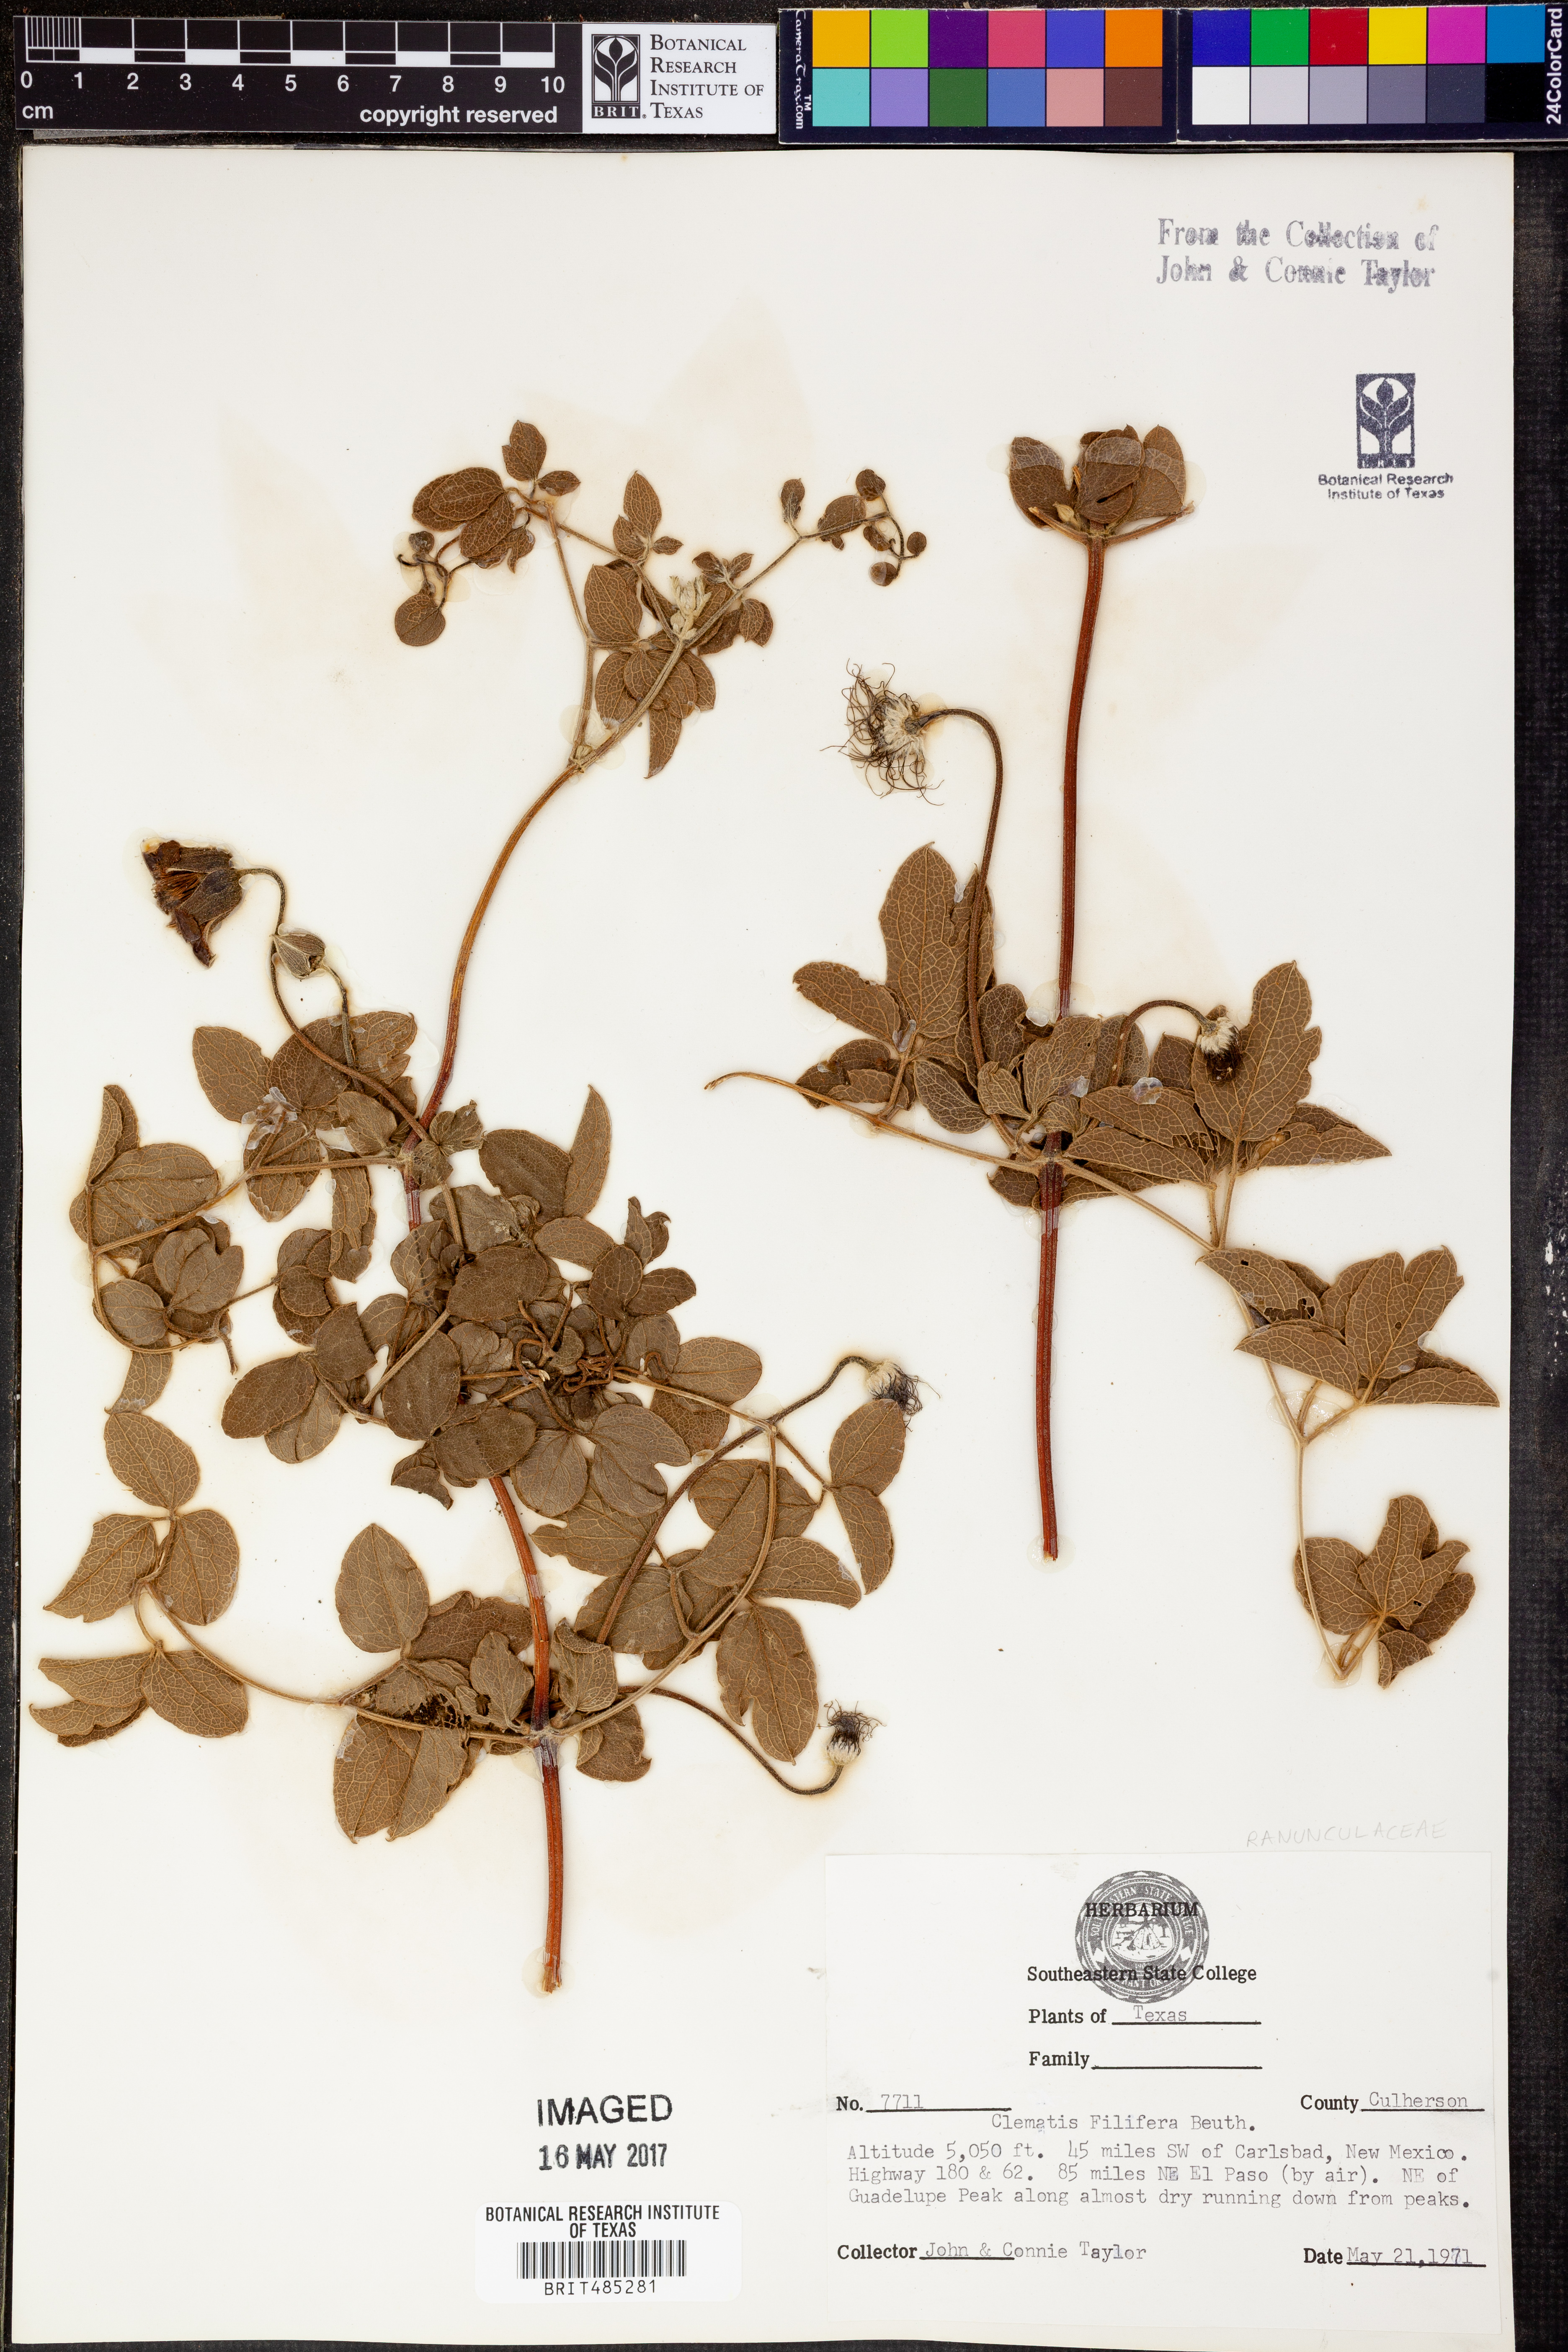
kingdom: Plantae
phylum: Tracheophyta
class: Magnoliopsida
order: Ranunculales
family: Ranunculaceae
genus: Clematis
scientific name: Clematis
